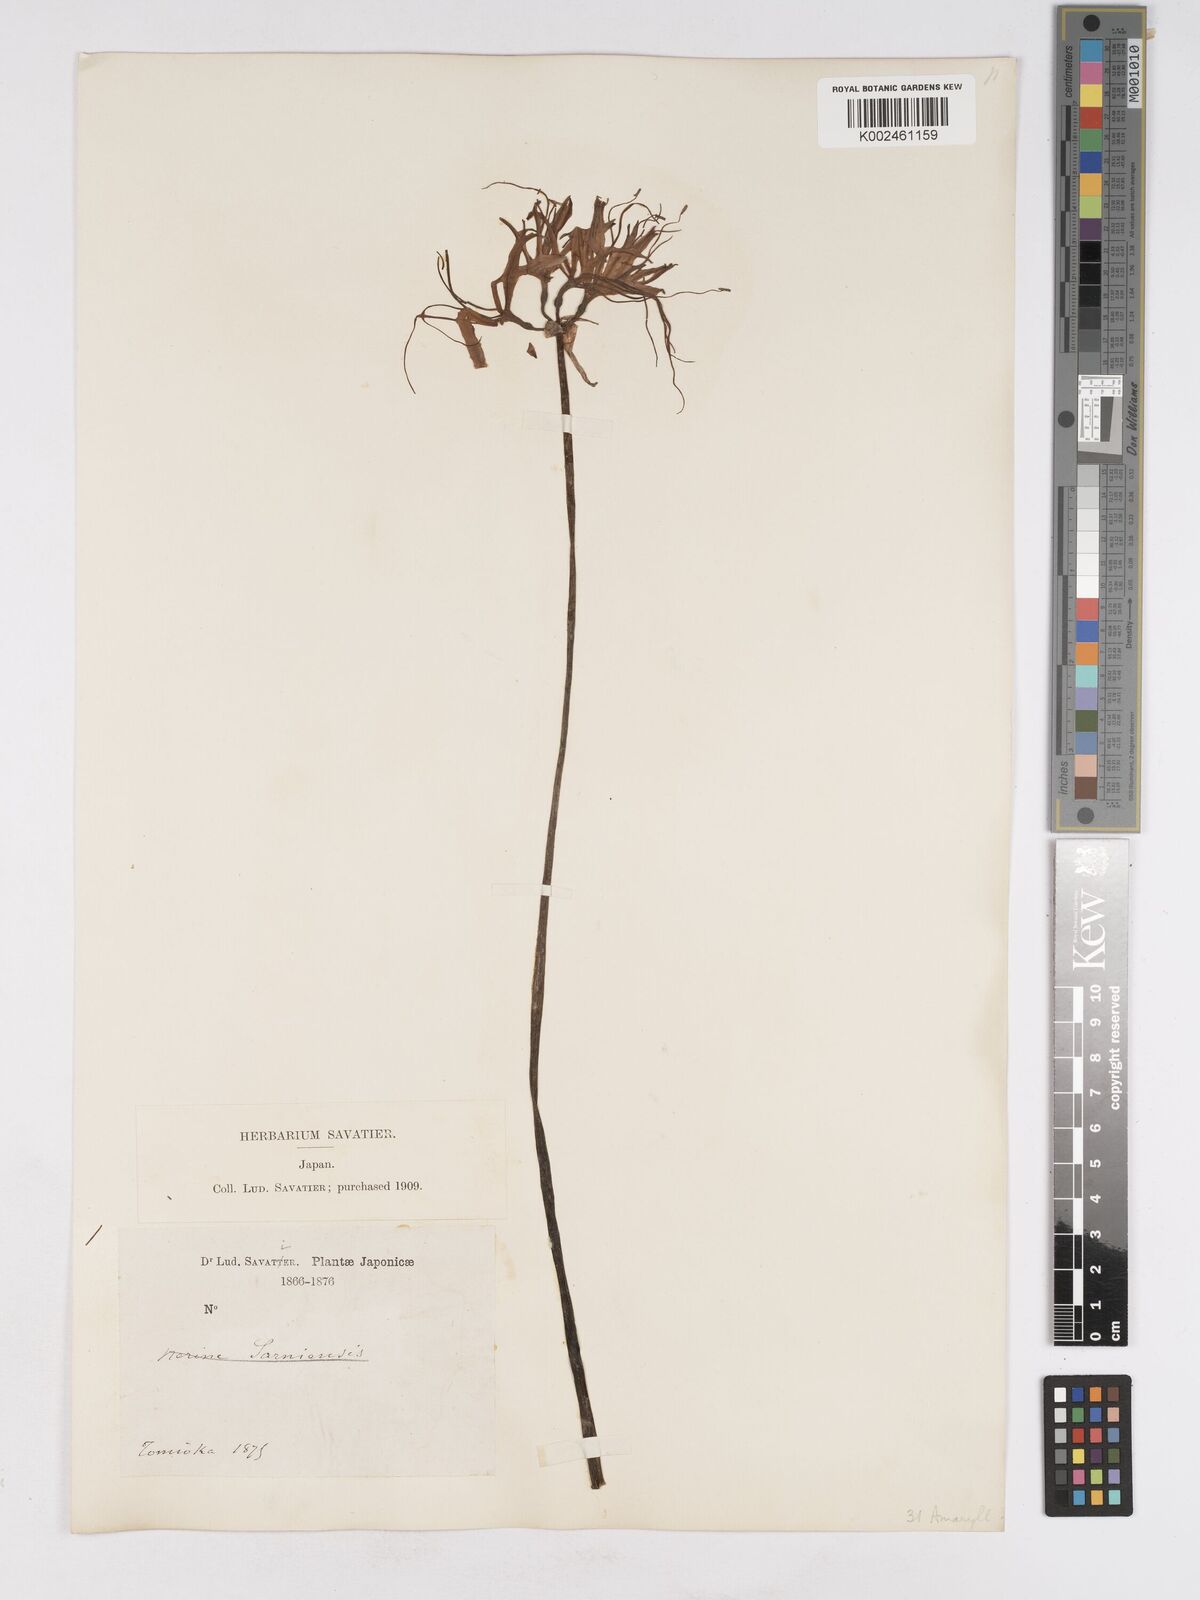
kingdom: Plantae
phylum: Tracheophyta
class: Liliopsida
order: Asparagales
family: Amaryllidaceae
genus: Lycoris
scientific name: Lycoris radiata
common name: Red spider lily
